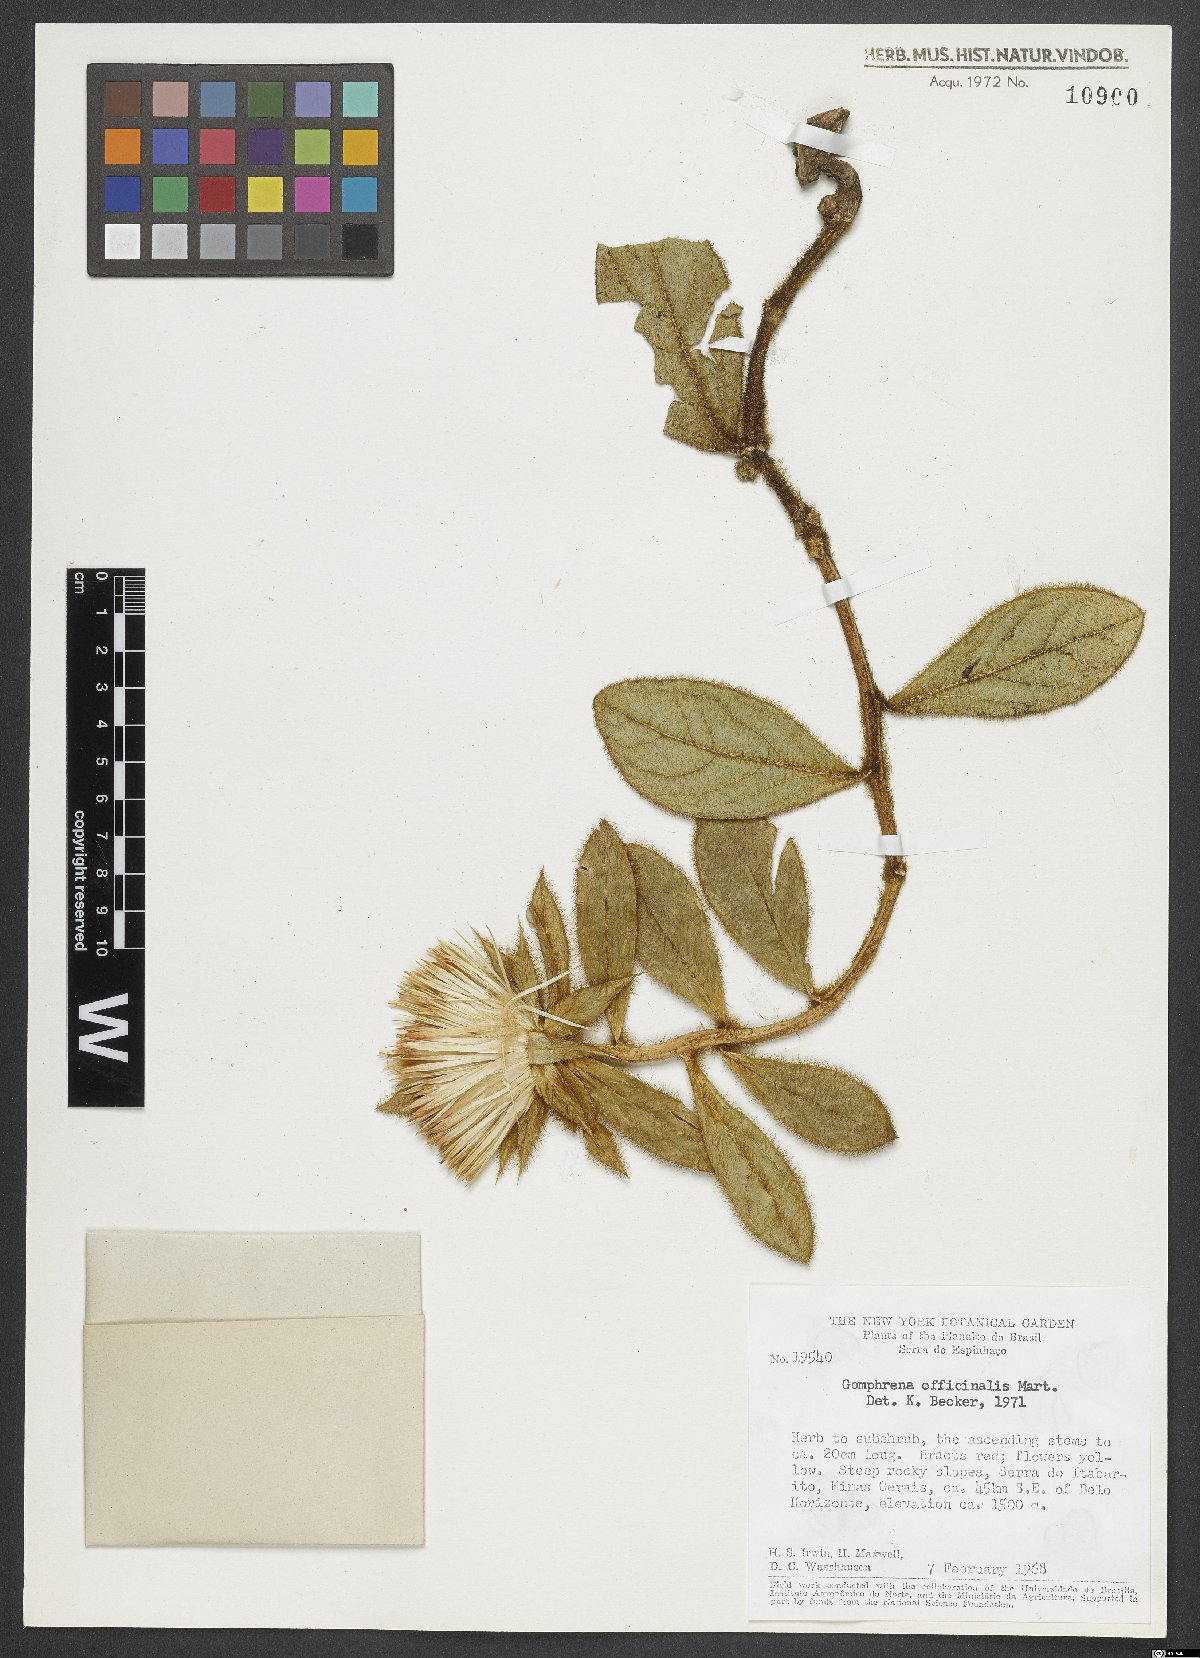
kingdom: Plantae
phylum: Tracheophyta
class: Magnoliopsida
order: Caryophyllales
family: Amaranthaceae
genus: Gomphrena
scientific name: Gomphrena arborescens
